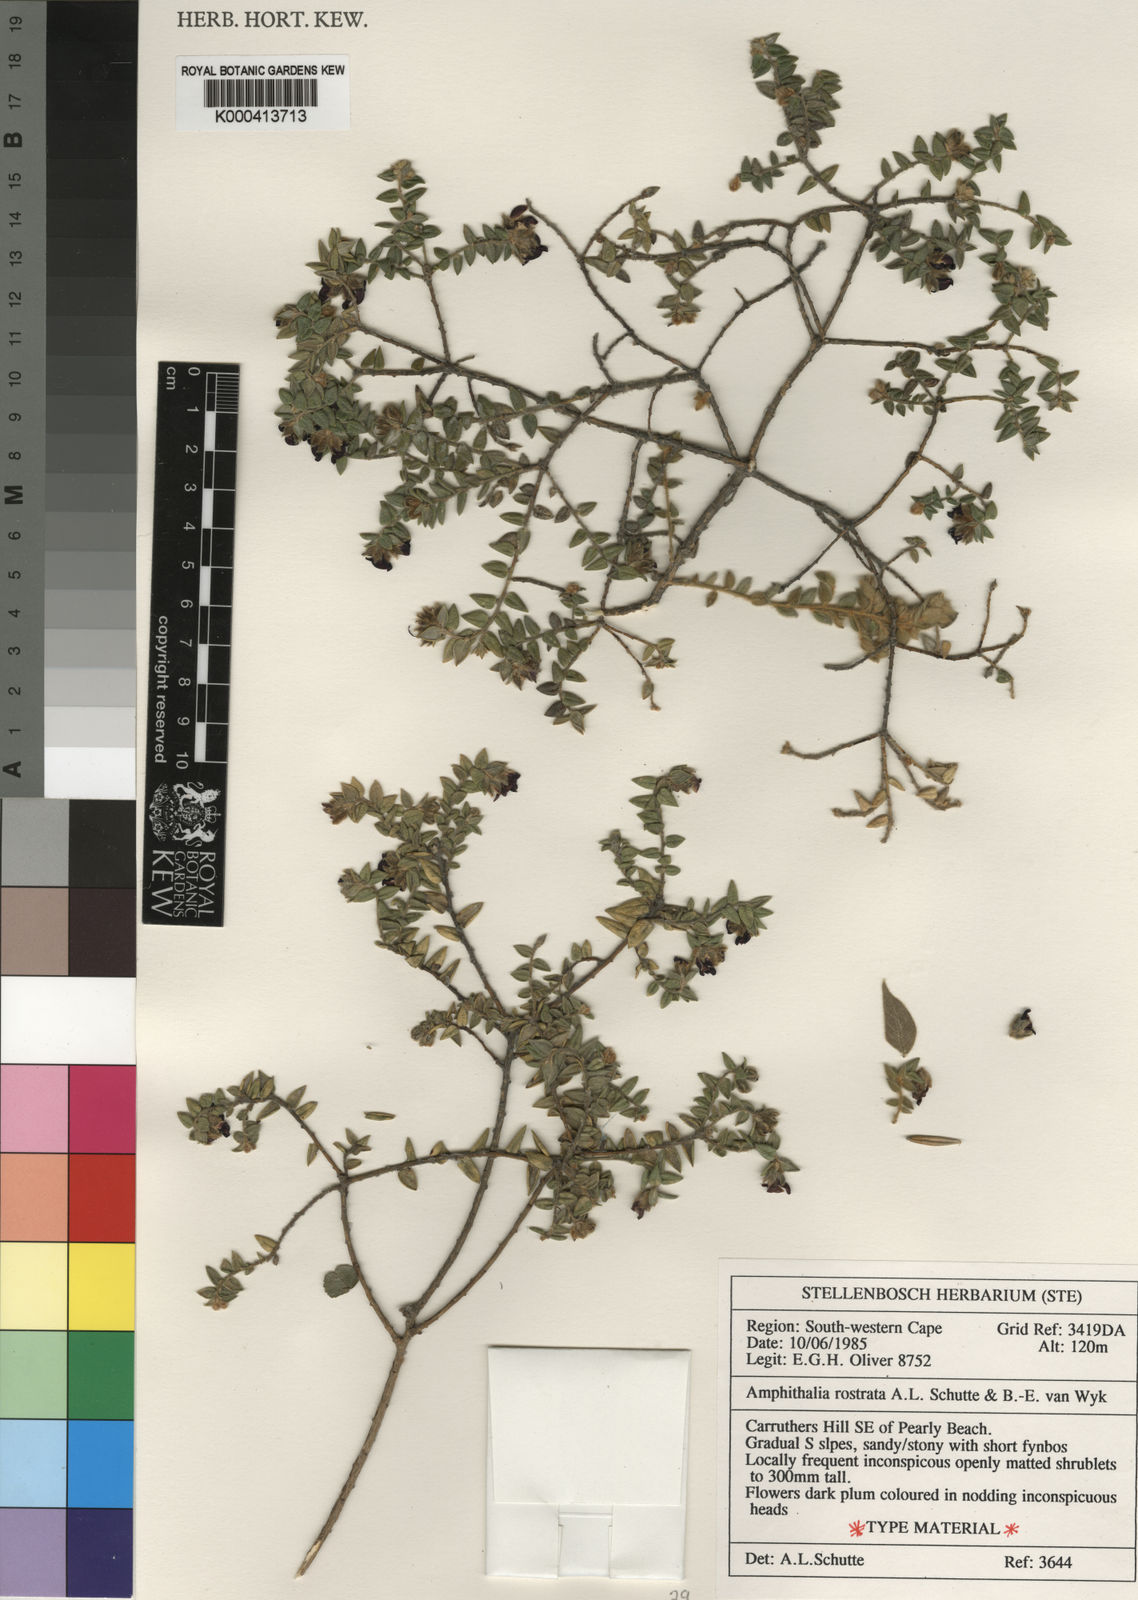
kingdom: Plantae
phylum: Tracheophyta
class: Magnoliopsida
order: Fabales
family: Fabaceae
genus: Amphithalea
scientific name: Amphithalea rostrata
